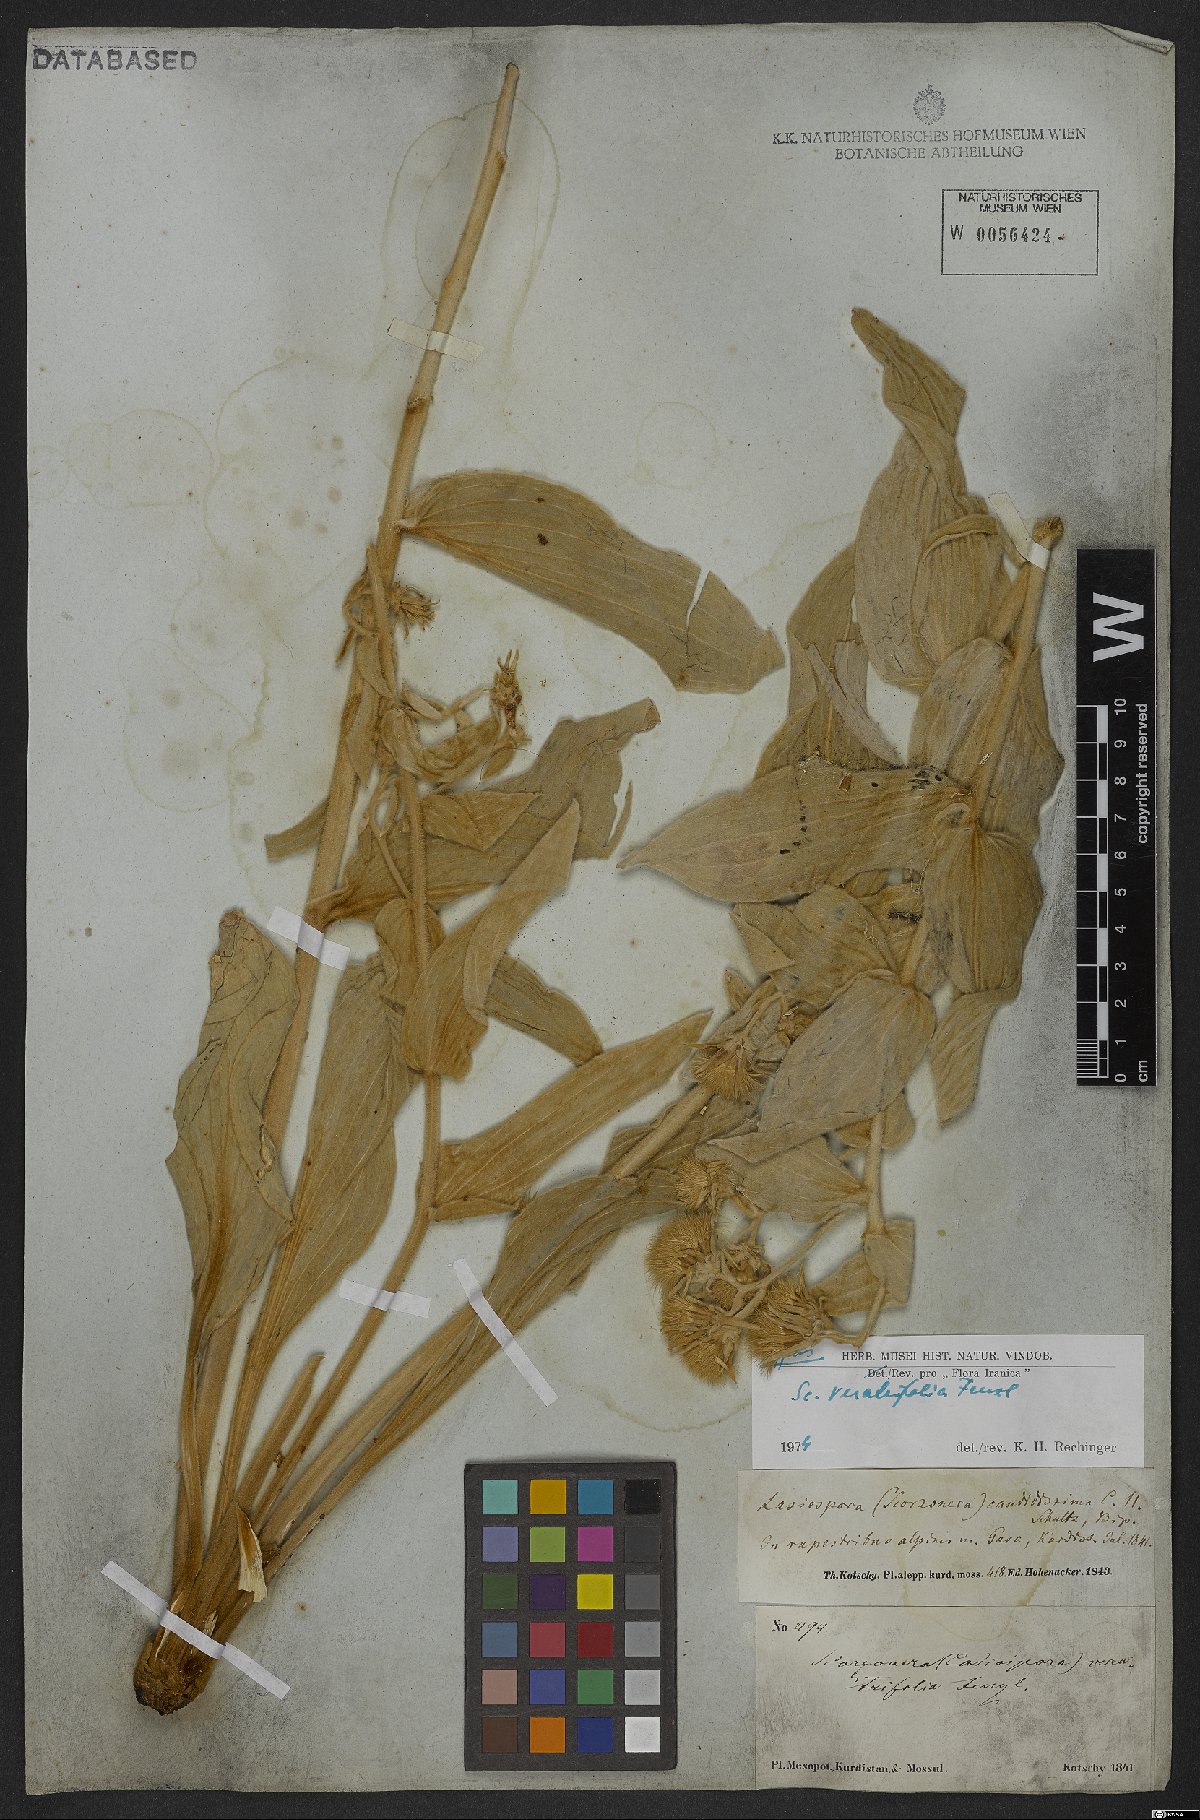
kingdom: Plantae
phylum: Tracheophyta
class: Magnoliopsida
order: Asterales
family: Asteraceae
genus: Guneria
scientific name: Guneria veratrifolia
